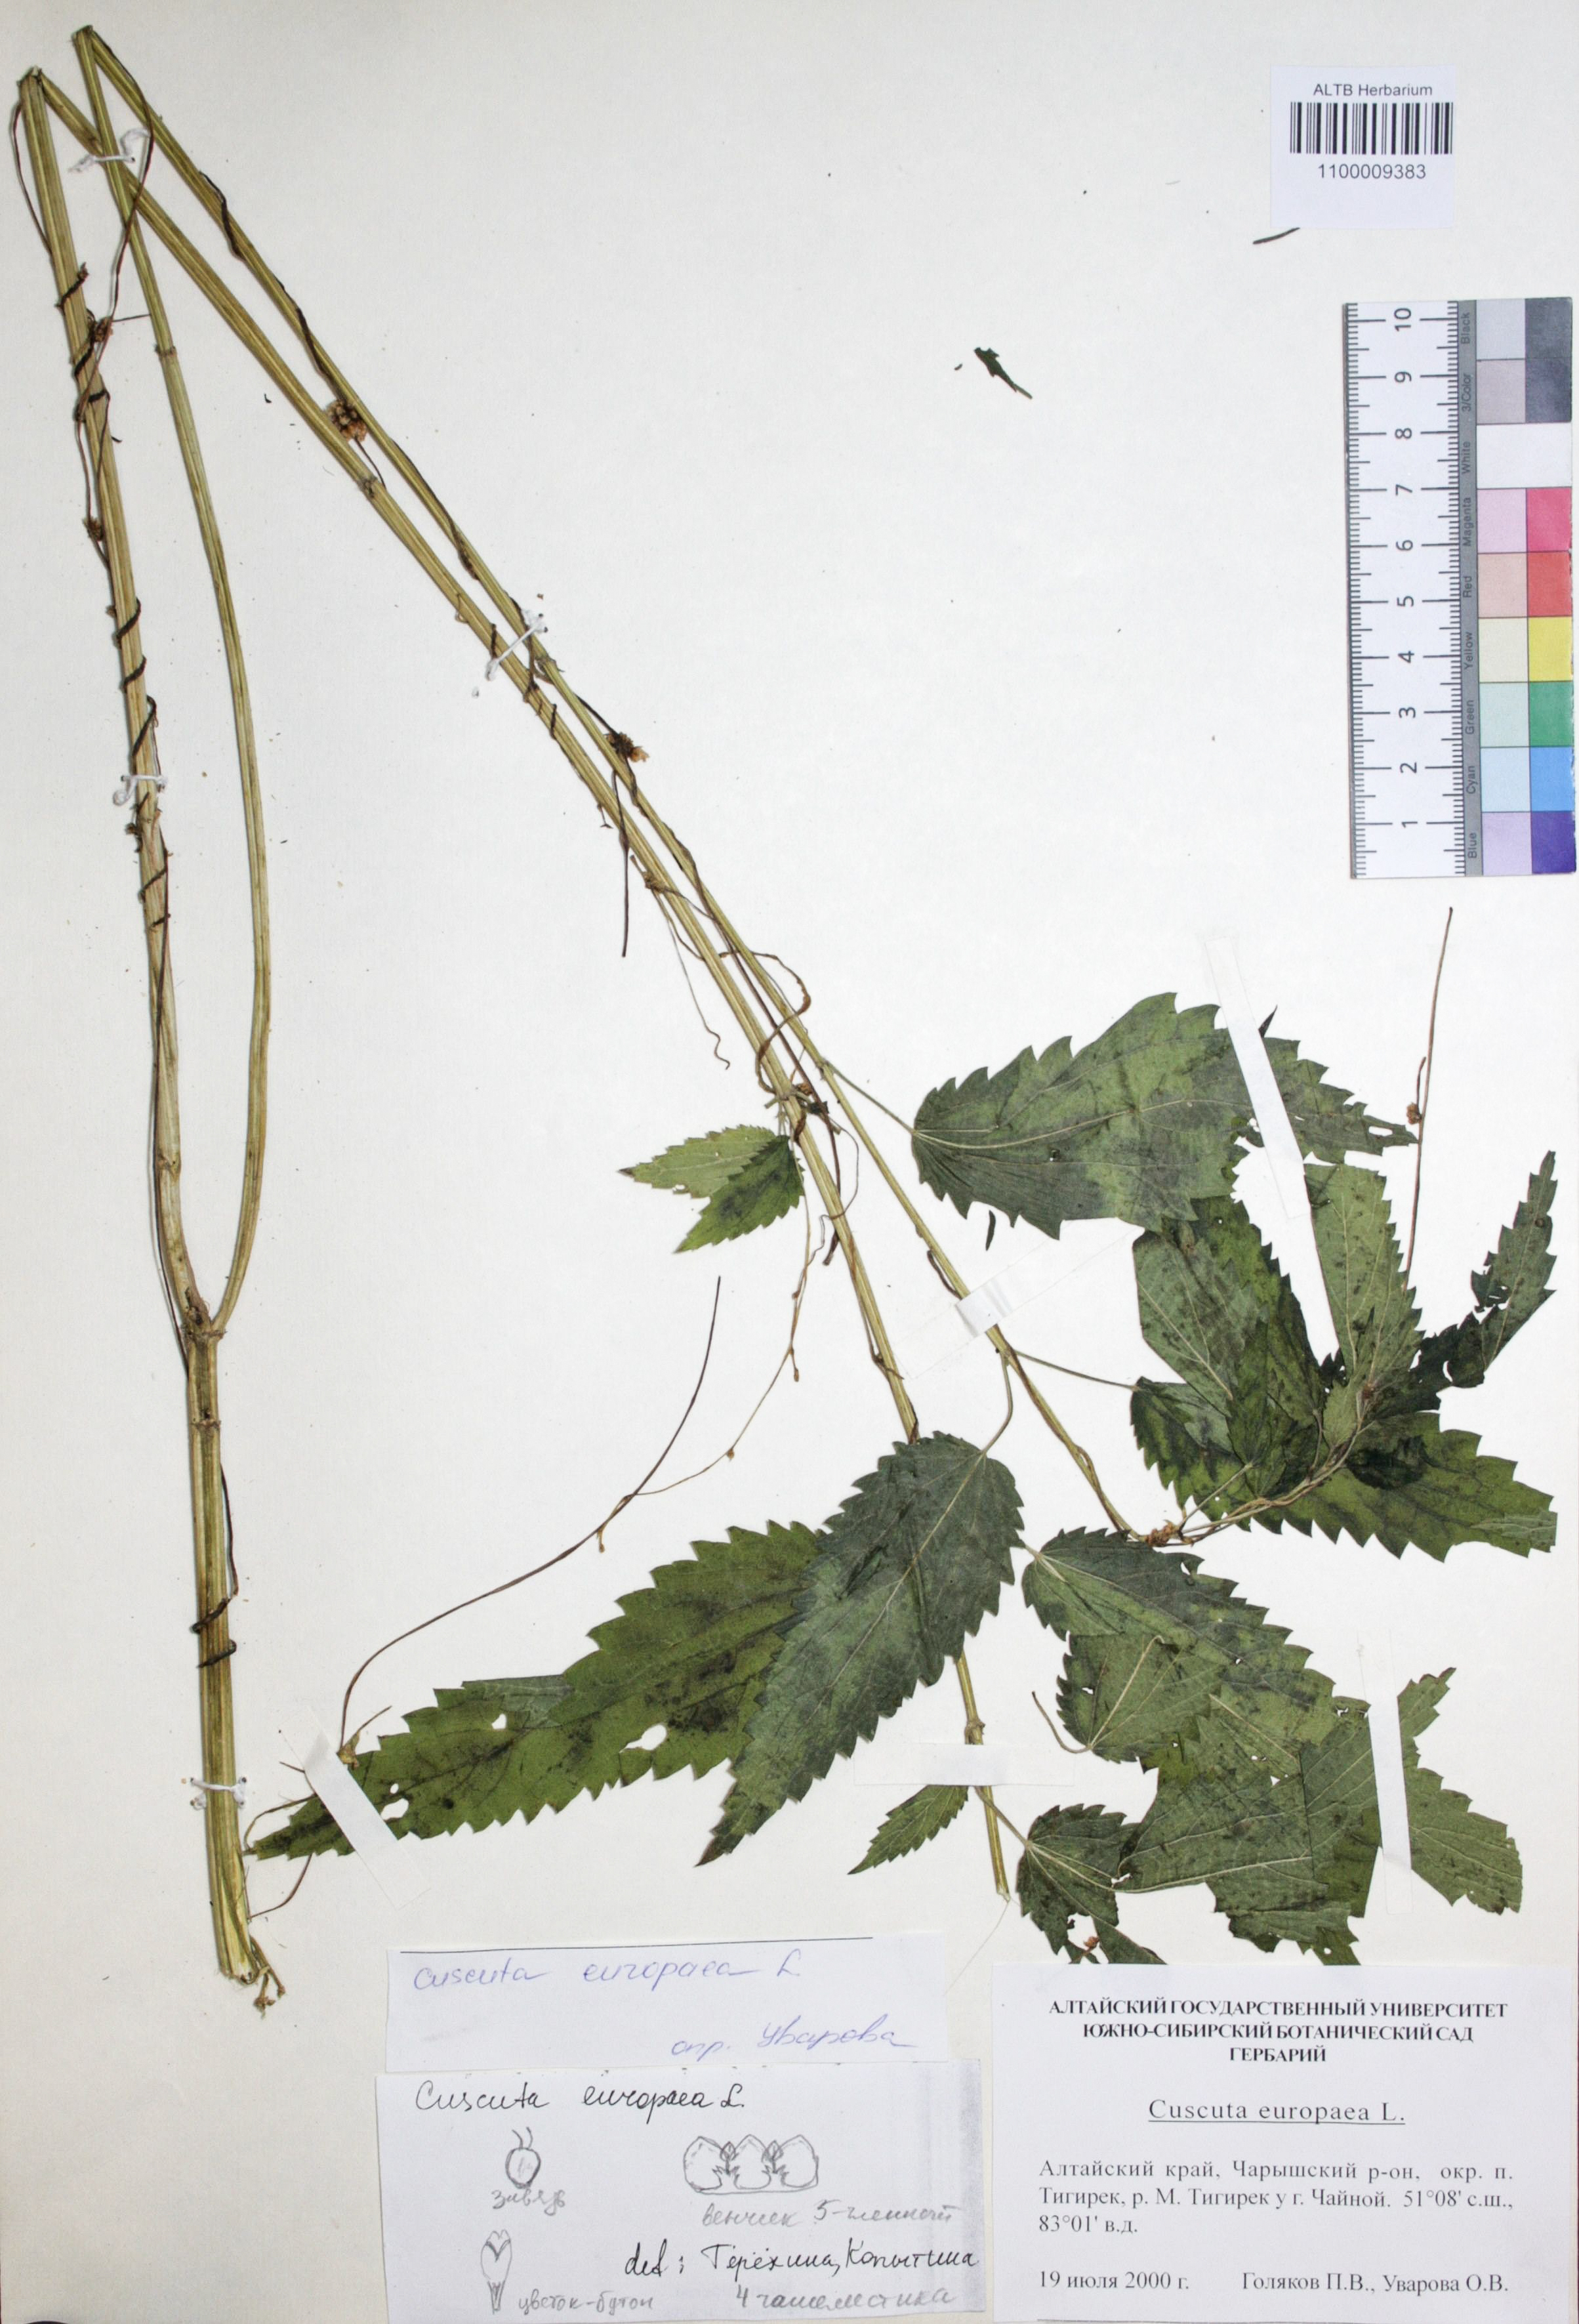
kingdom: Plantae
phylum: Tracheophyta
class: Magnoliopsida
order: Solanales
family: Convolvulaceae
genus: Cuscuta
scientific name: Cuscuta europaea
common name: Greater dodder
